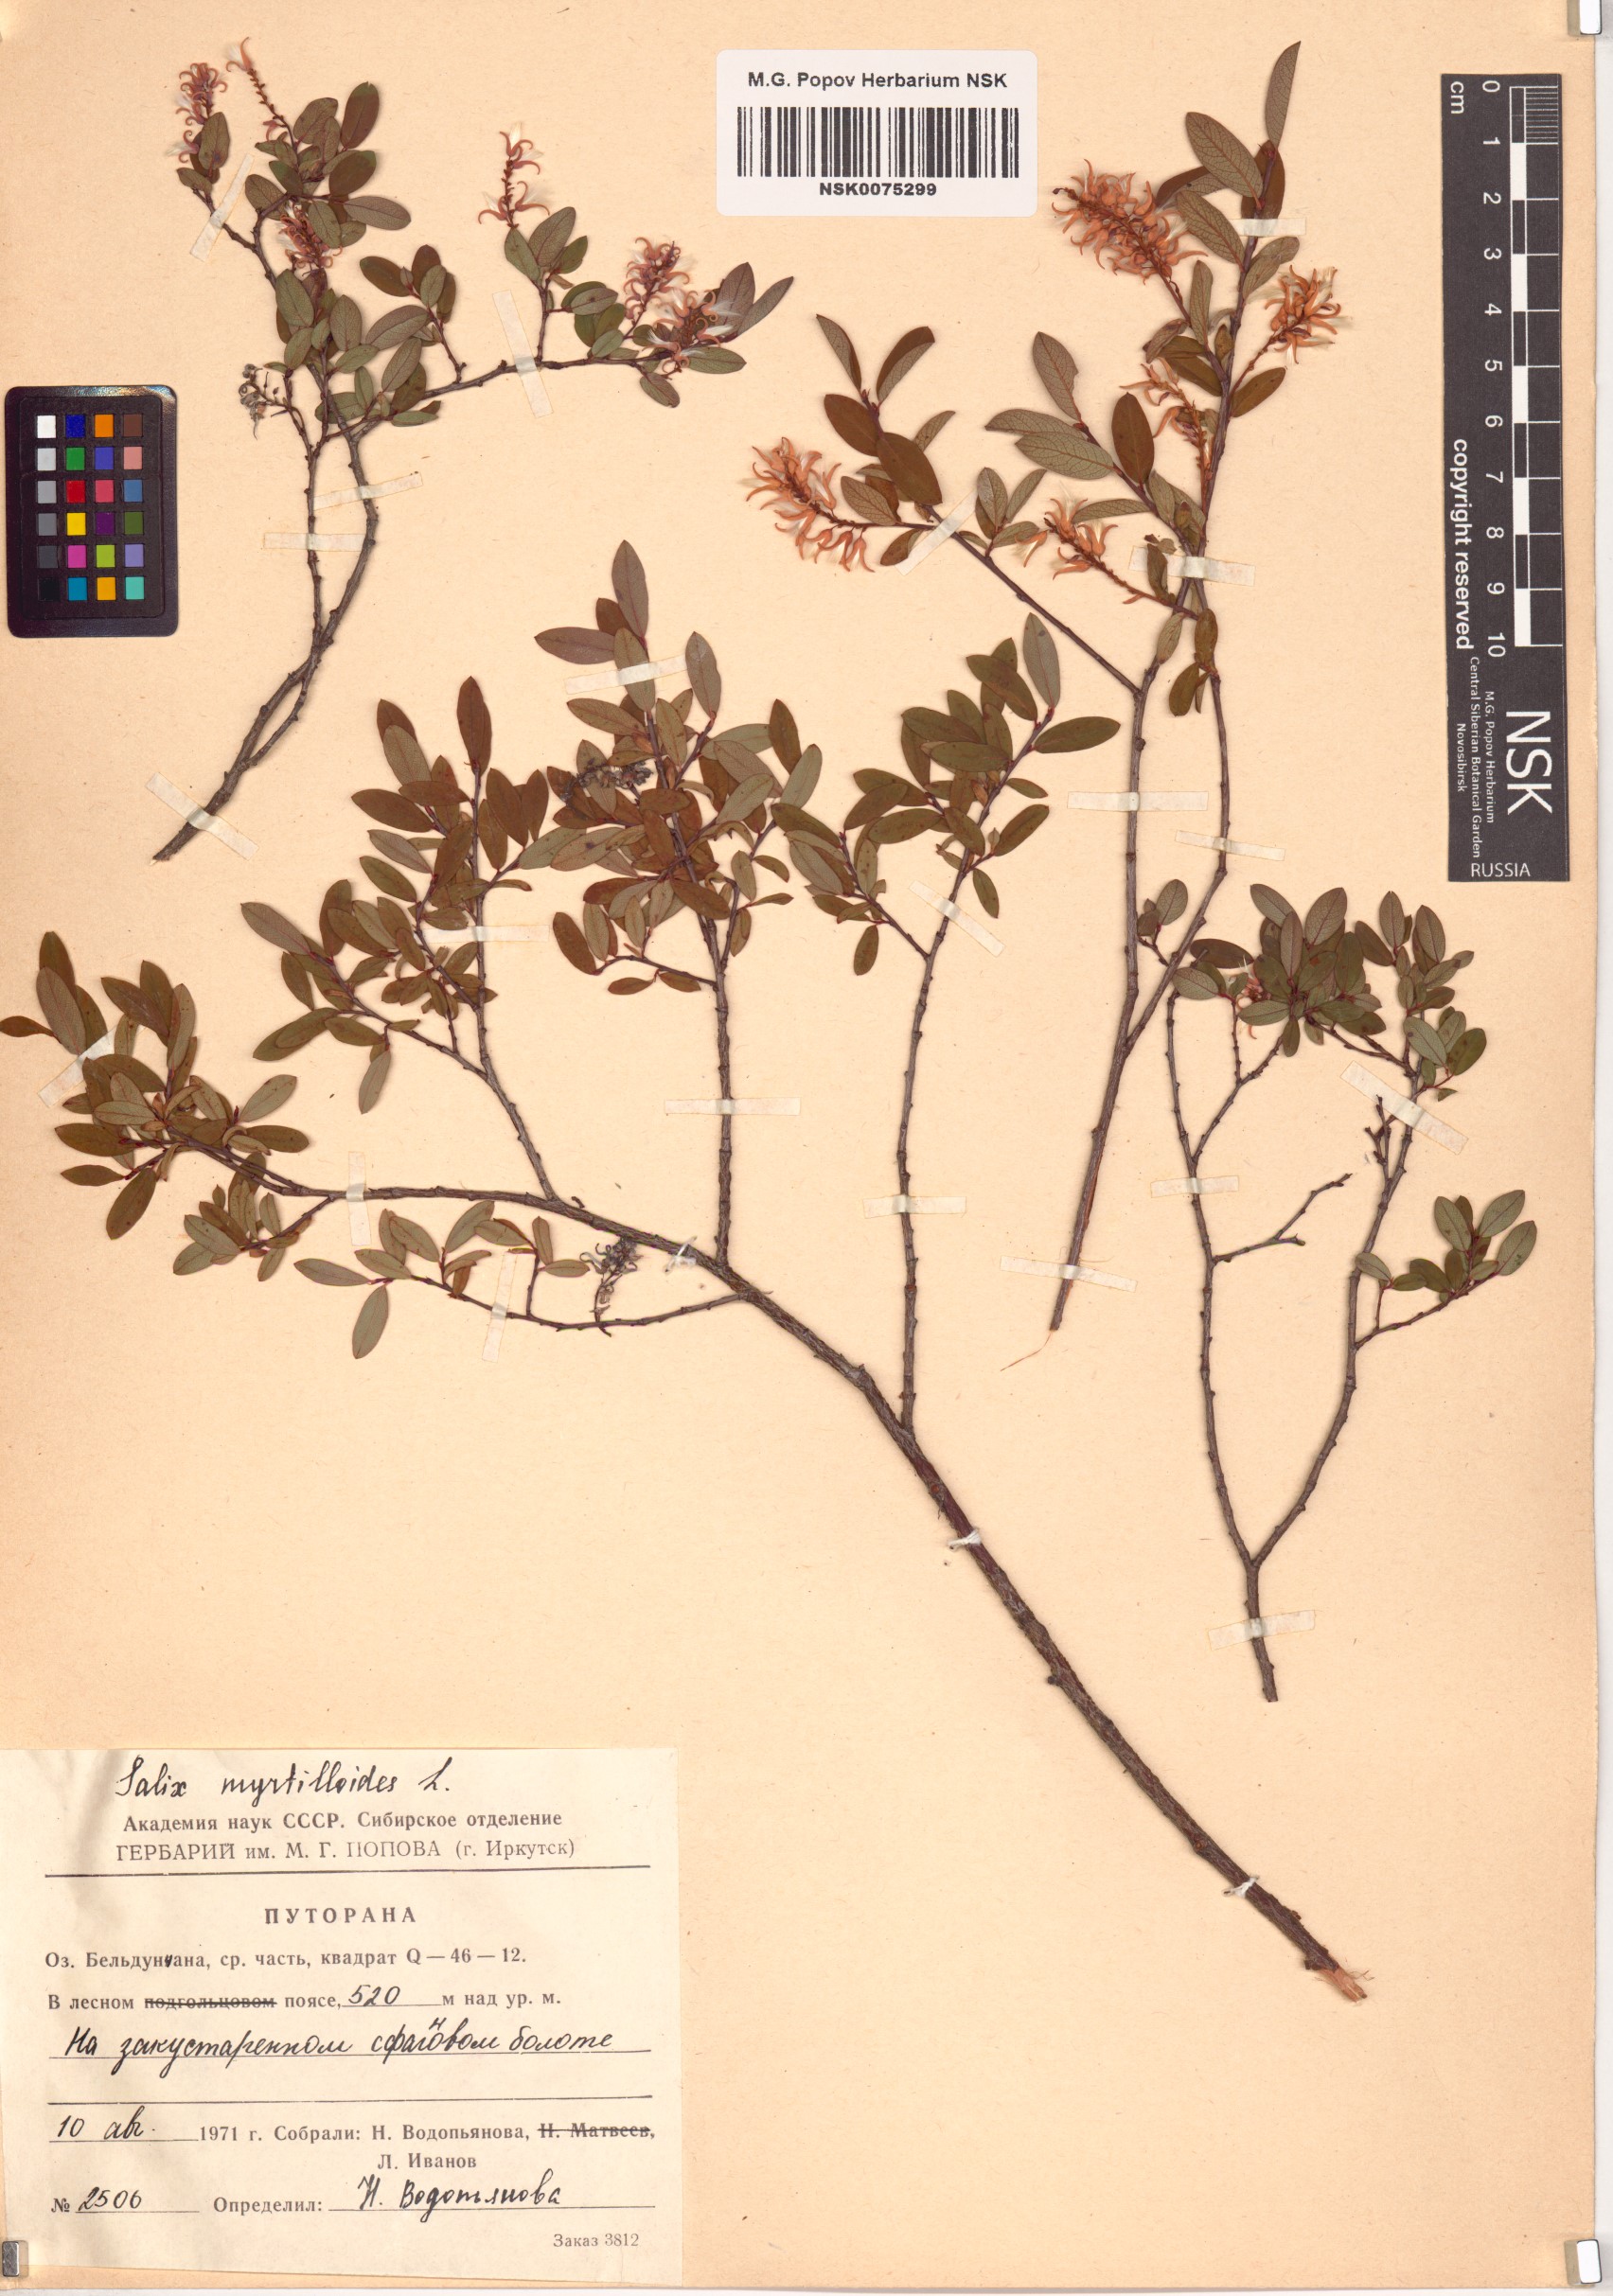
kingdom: Plantae
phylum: Tracheophyta
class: Magnoliopsida
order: Malpighiales
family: Salicaceae
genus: Salix
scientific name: Salix myrtilloides
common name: Myrtle-leaved willow
